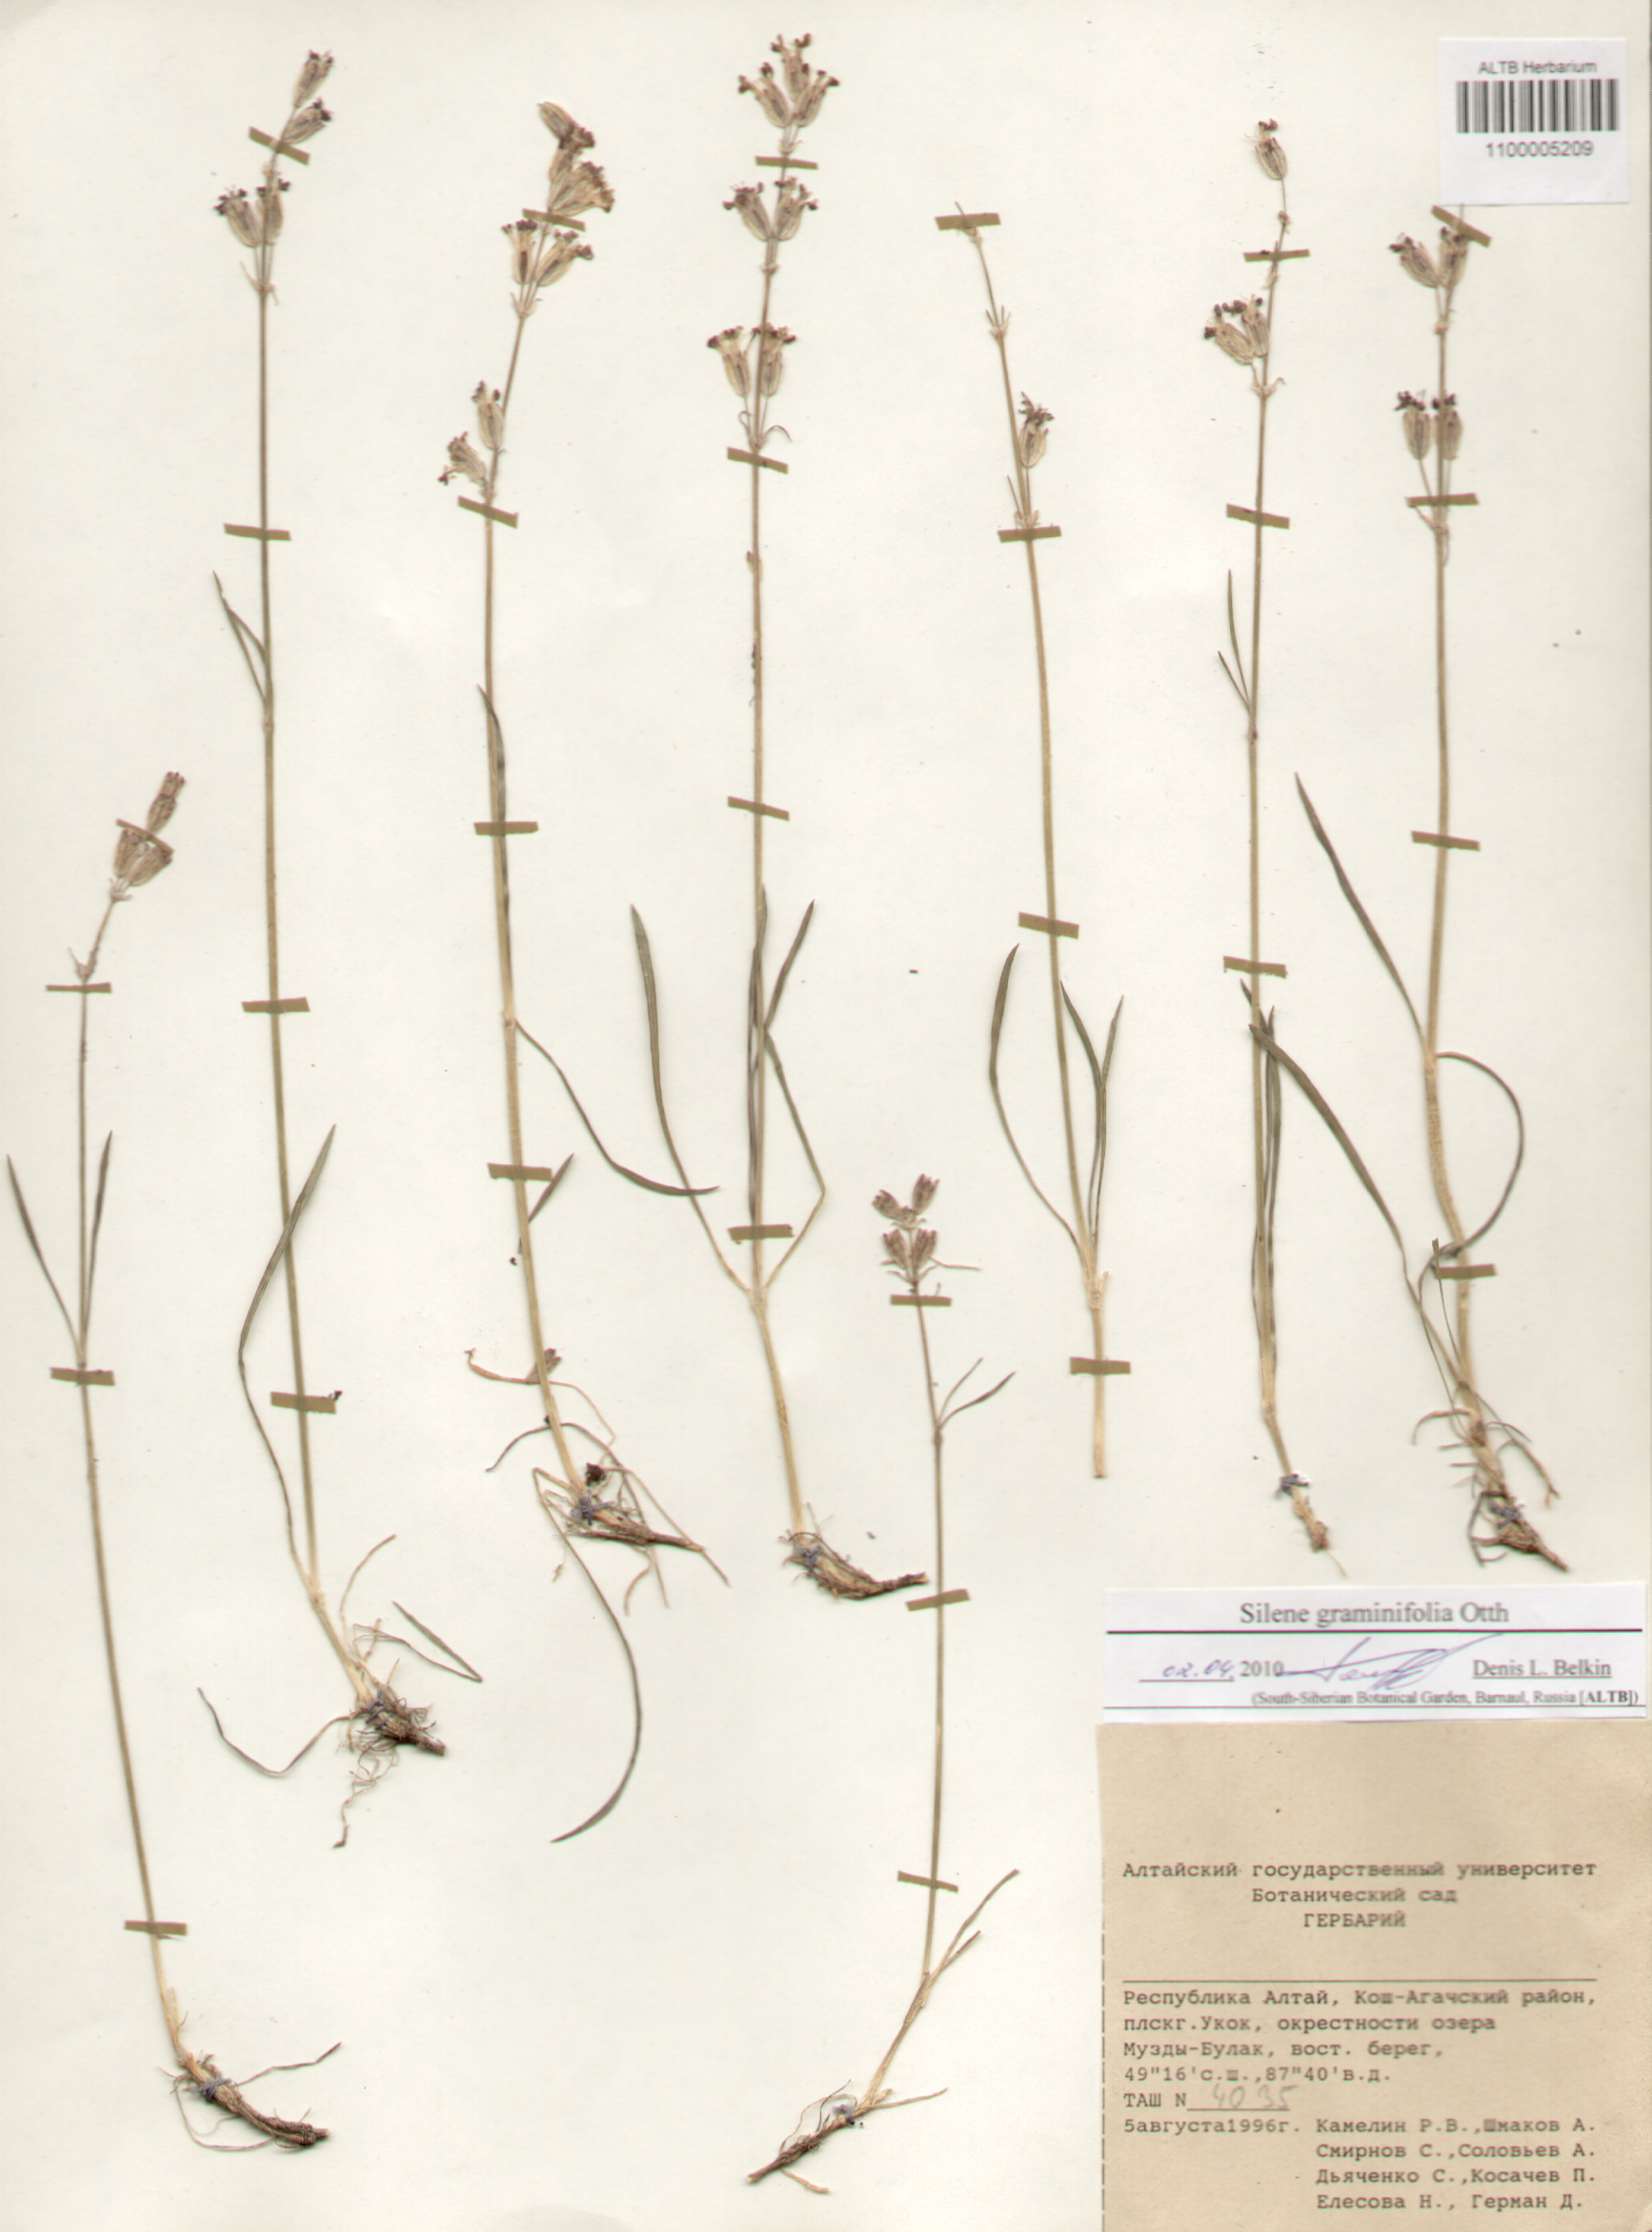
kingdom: Plantae
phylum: Tracheophyta
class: Magnoliopsida
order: Caryophyllales
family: Caryophyllaceae
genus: Silene
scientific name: Silene graminifolia
